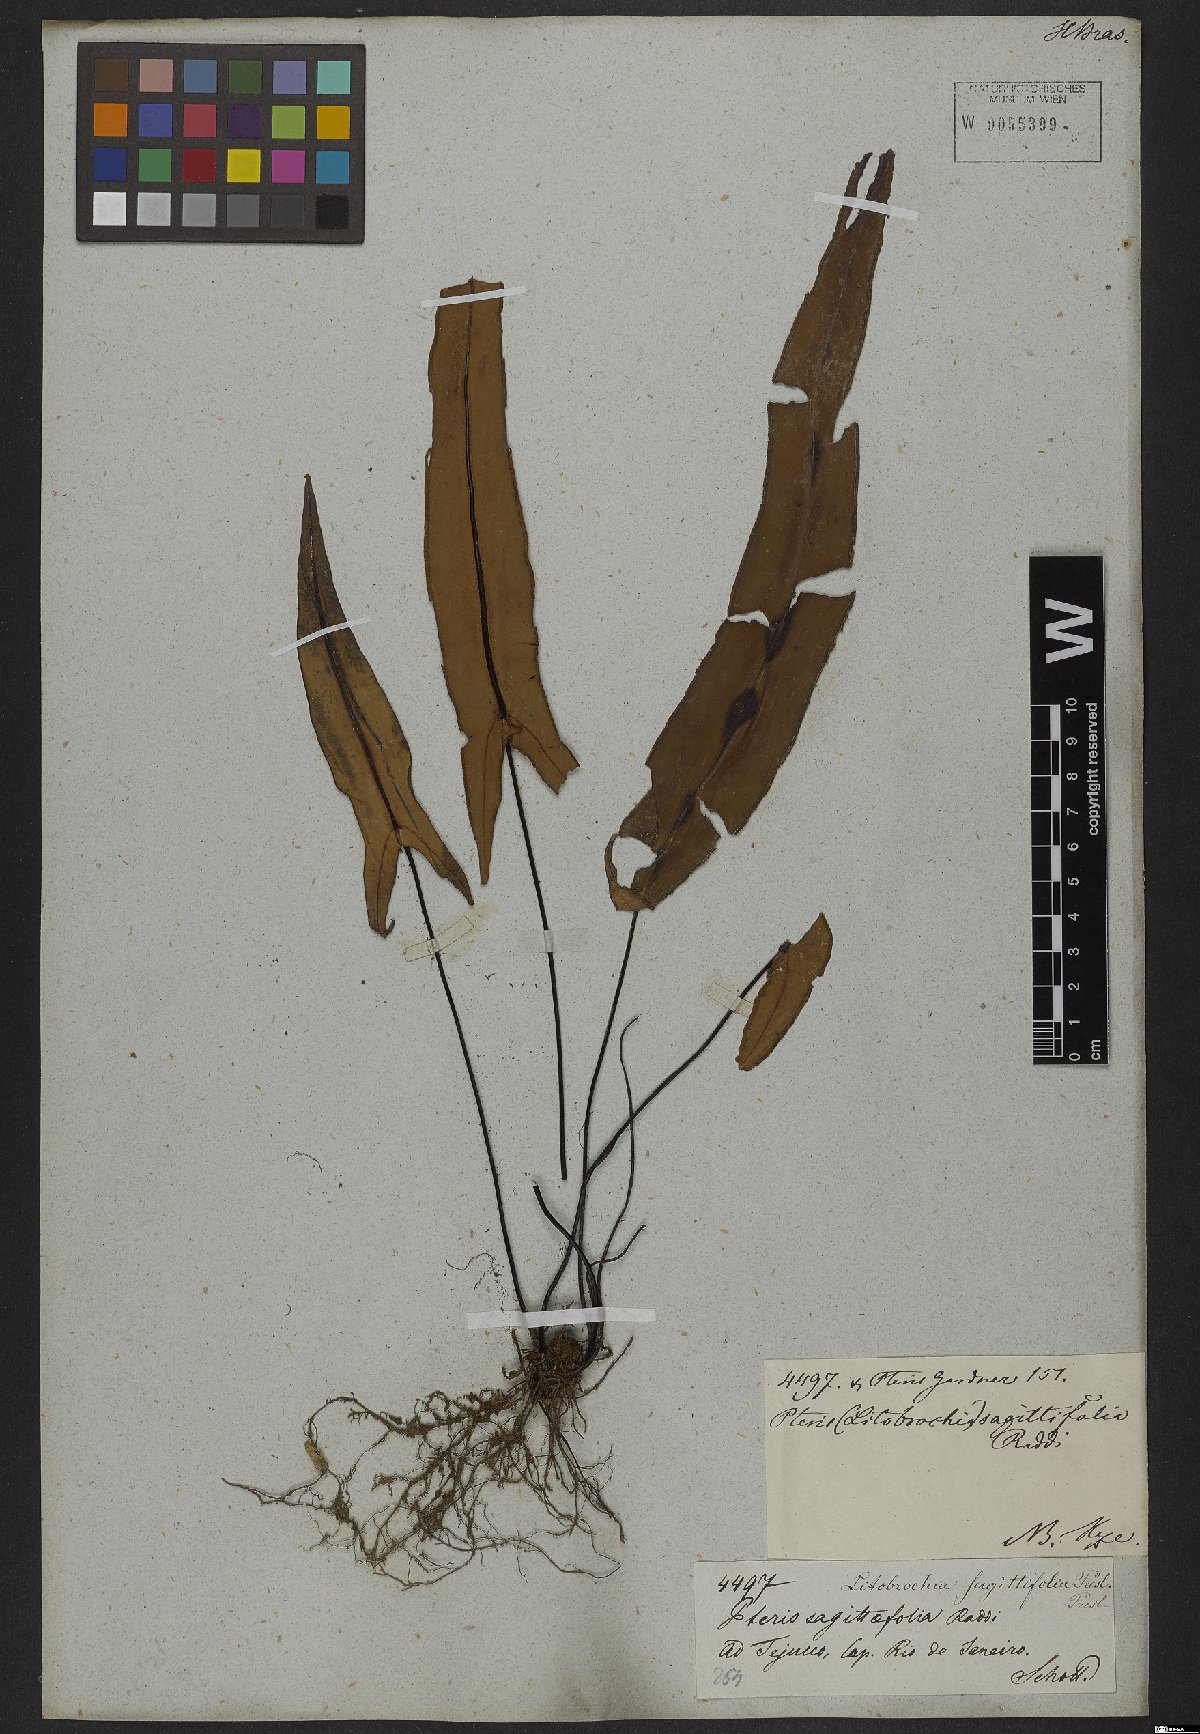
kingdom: Plantae
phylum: Tracheophyta
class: Polypodiopsida
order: Polypodiales
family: Pteridaceae
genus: Doryopteris
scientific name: Doryopteris sagittifolia
